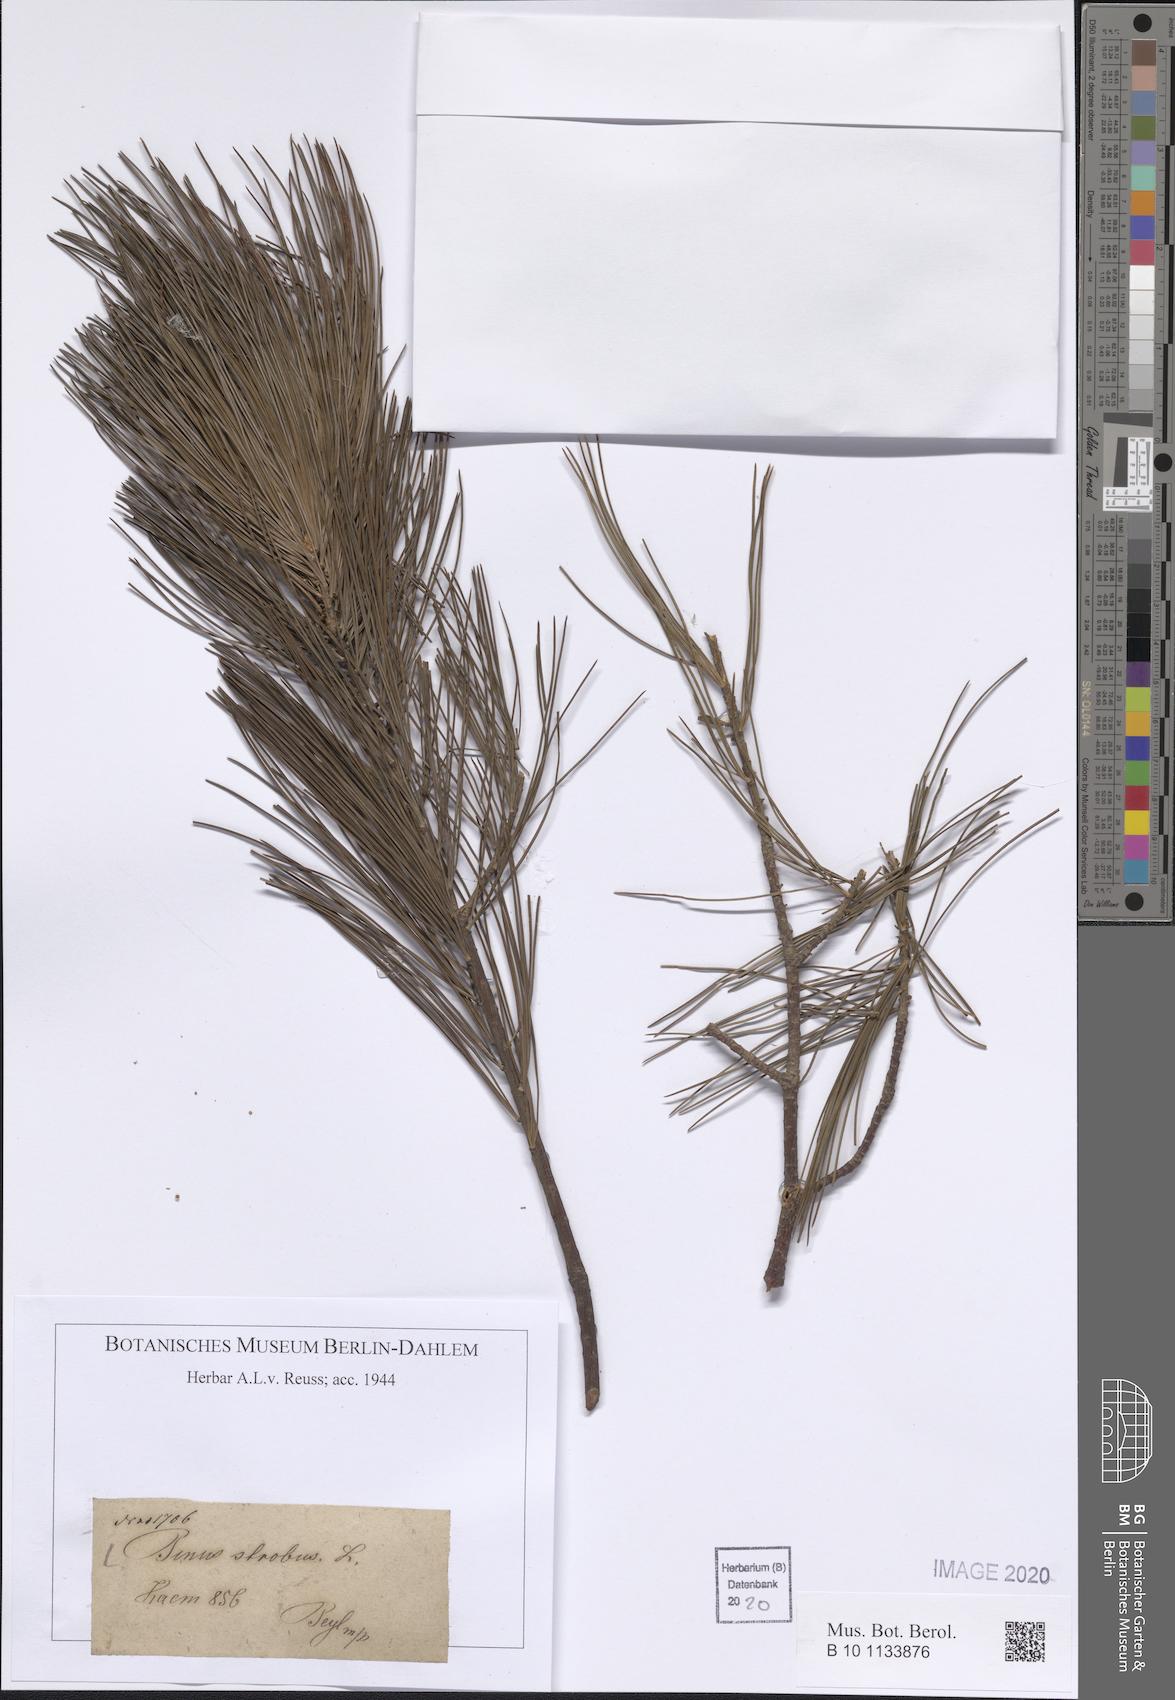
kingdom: Plantae
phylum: Tracheophyta
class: Pinopsida
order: Pinales
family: Pinaceae
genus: Pinus
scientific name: Pinus strobus
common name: Weymouth pine
